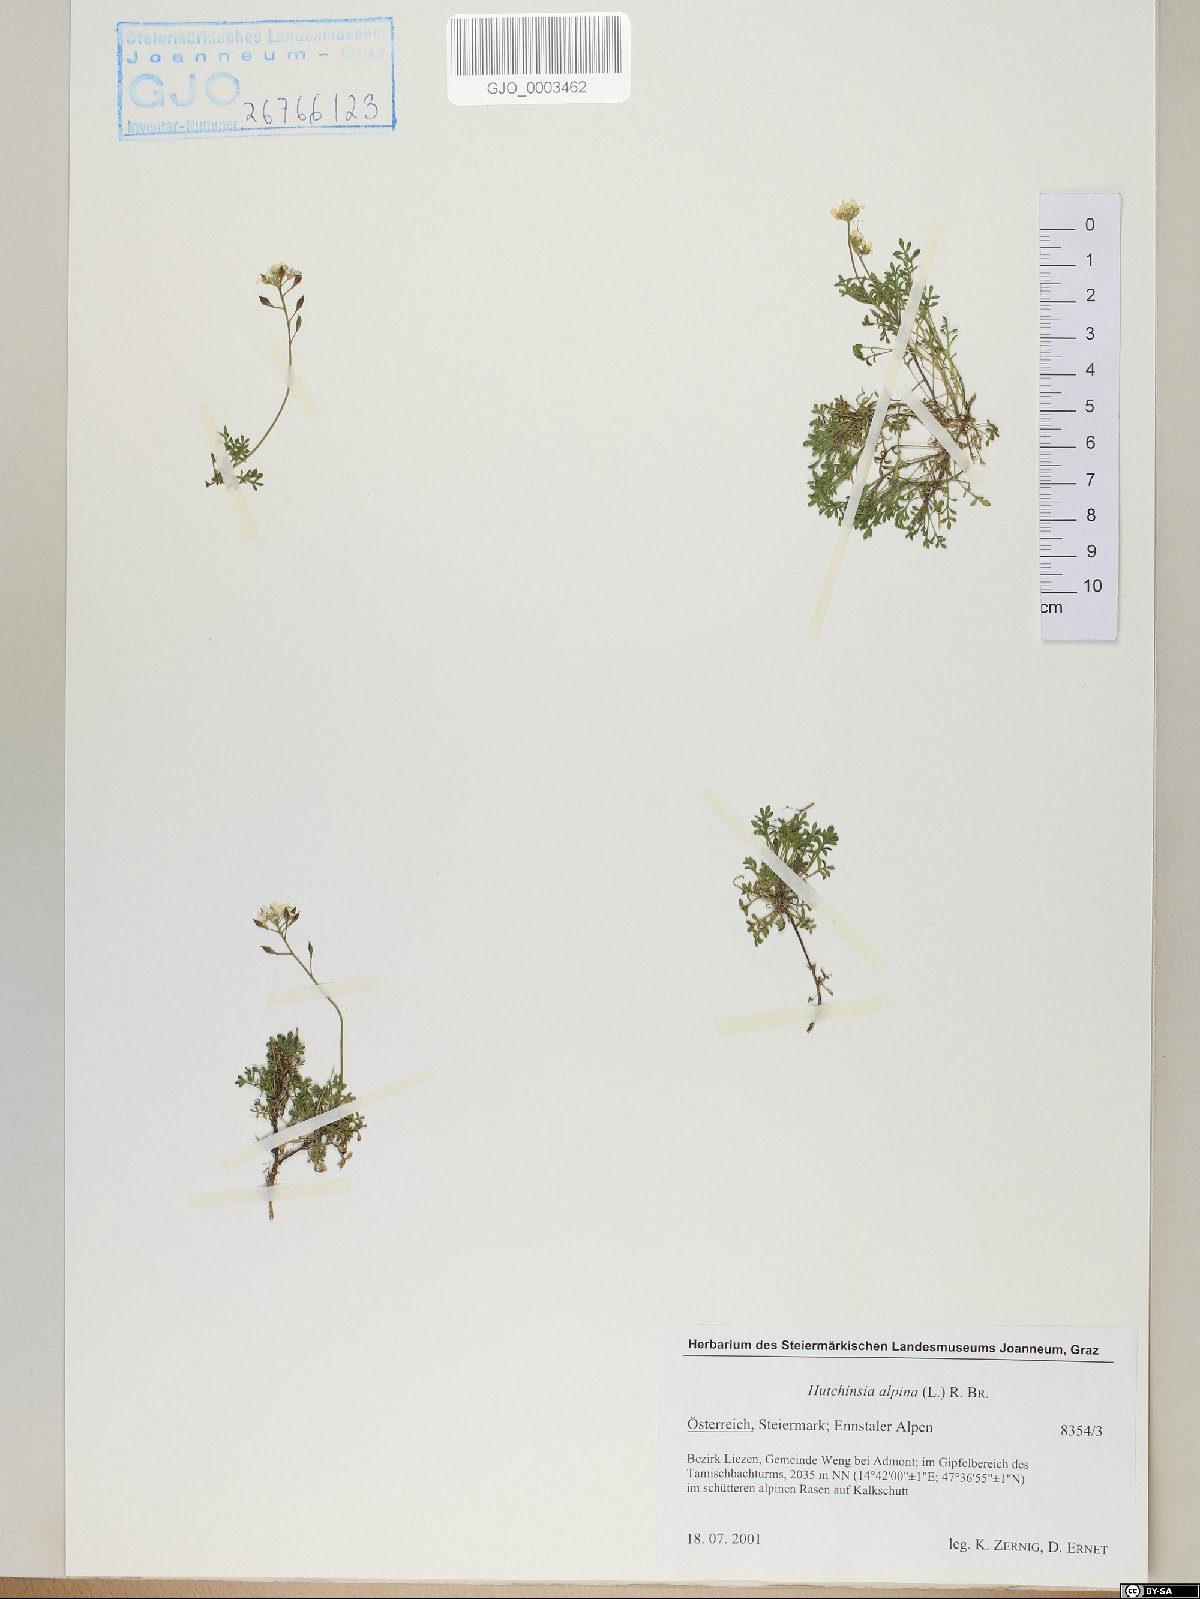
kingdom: Plantae
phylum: Tracheophyta
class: Magnoliopsida
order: Brassicales
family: Brassicaceae
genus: Hornungia
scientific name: Hornungia alpina
